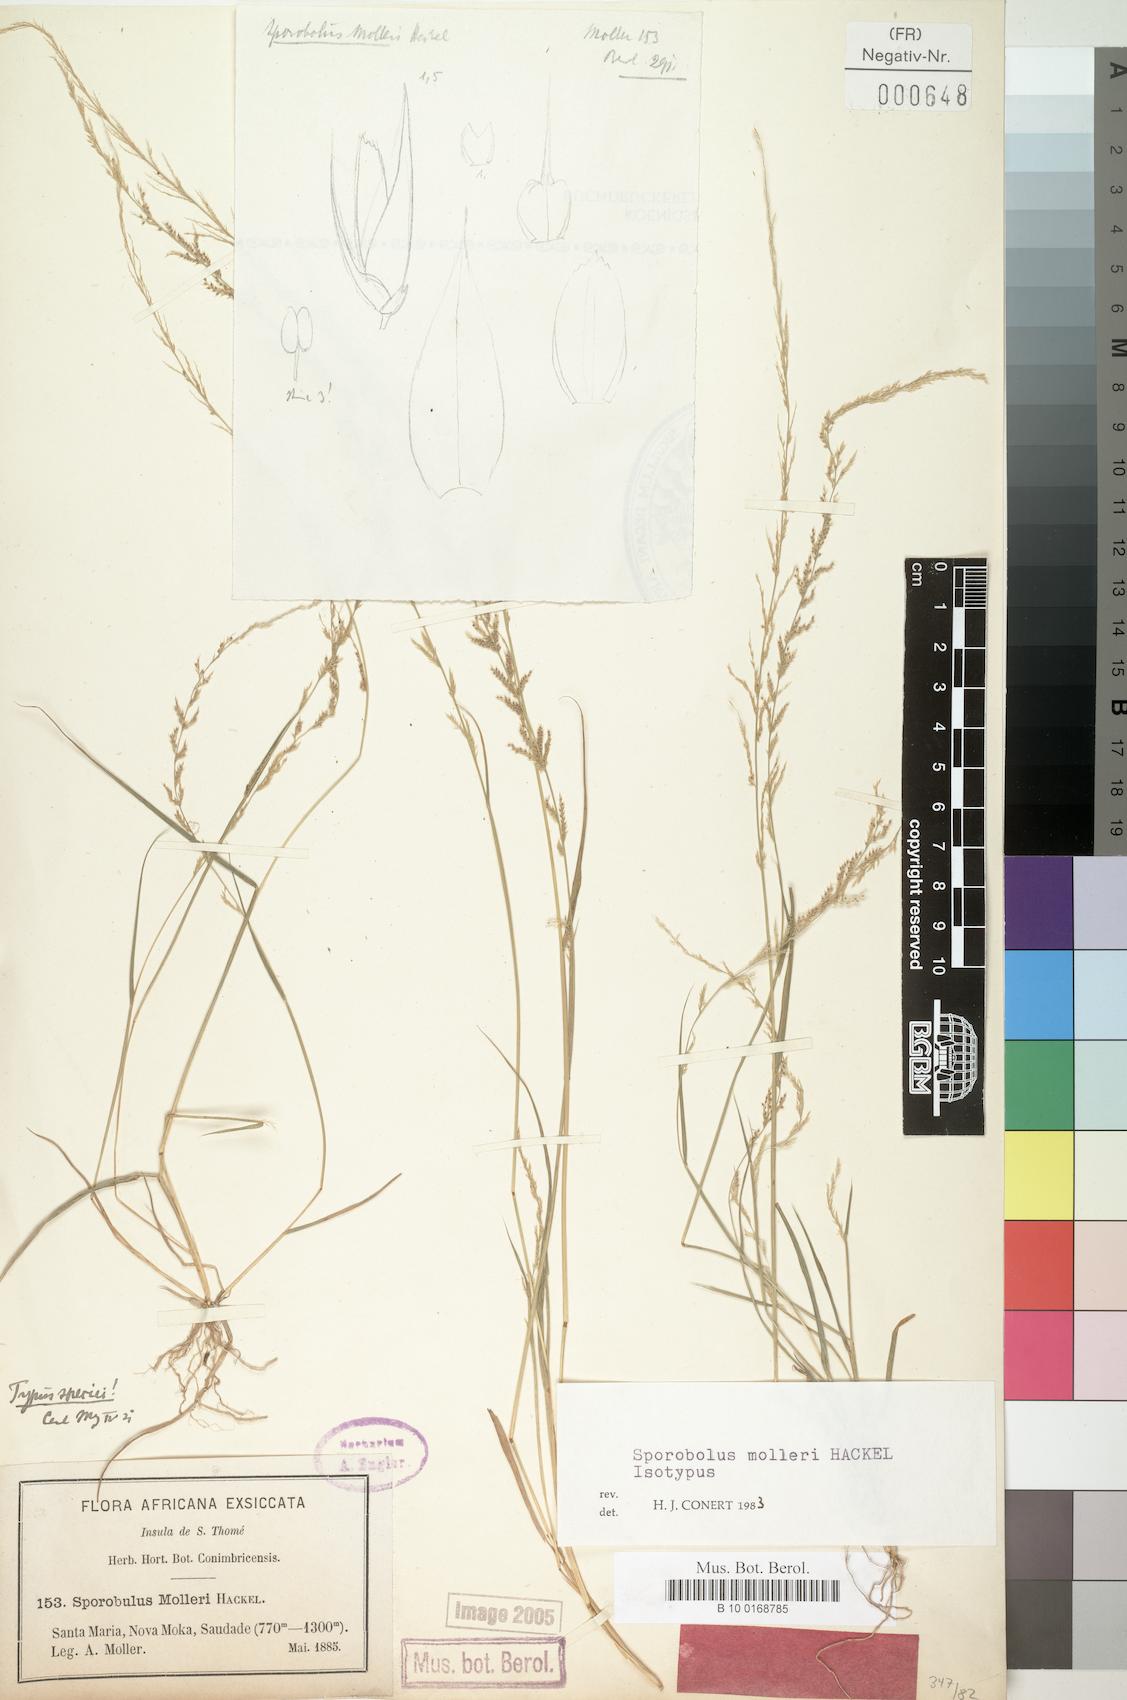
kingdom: Plantae
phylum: Tracheophyta
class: Liliopsida
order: Poales
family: Poaceae
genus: Sporobolus
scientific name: Sporobolus molleri
